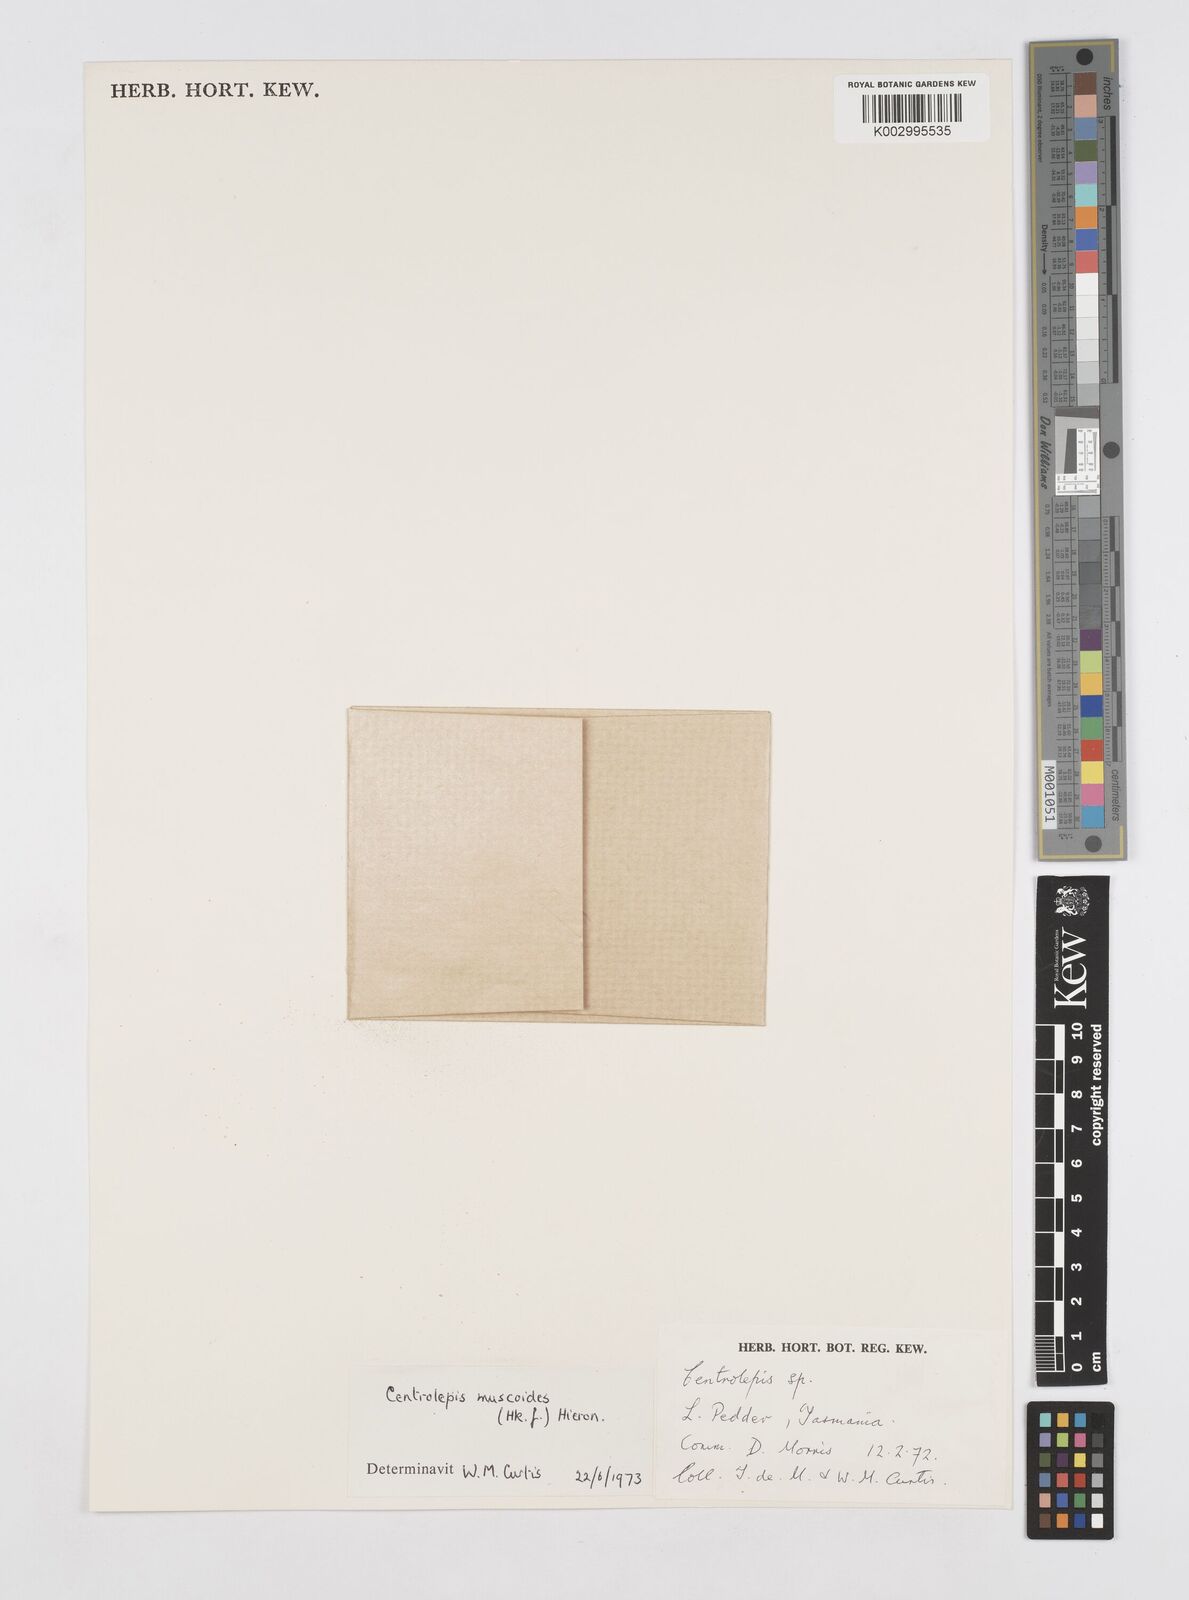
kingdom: Plantae
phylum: Tracheophyta
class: Liliopsida
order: Poales
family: Restionaceae
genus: Centrolepis
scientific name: Centrolepis muscoides
